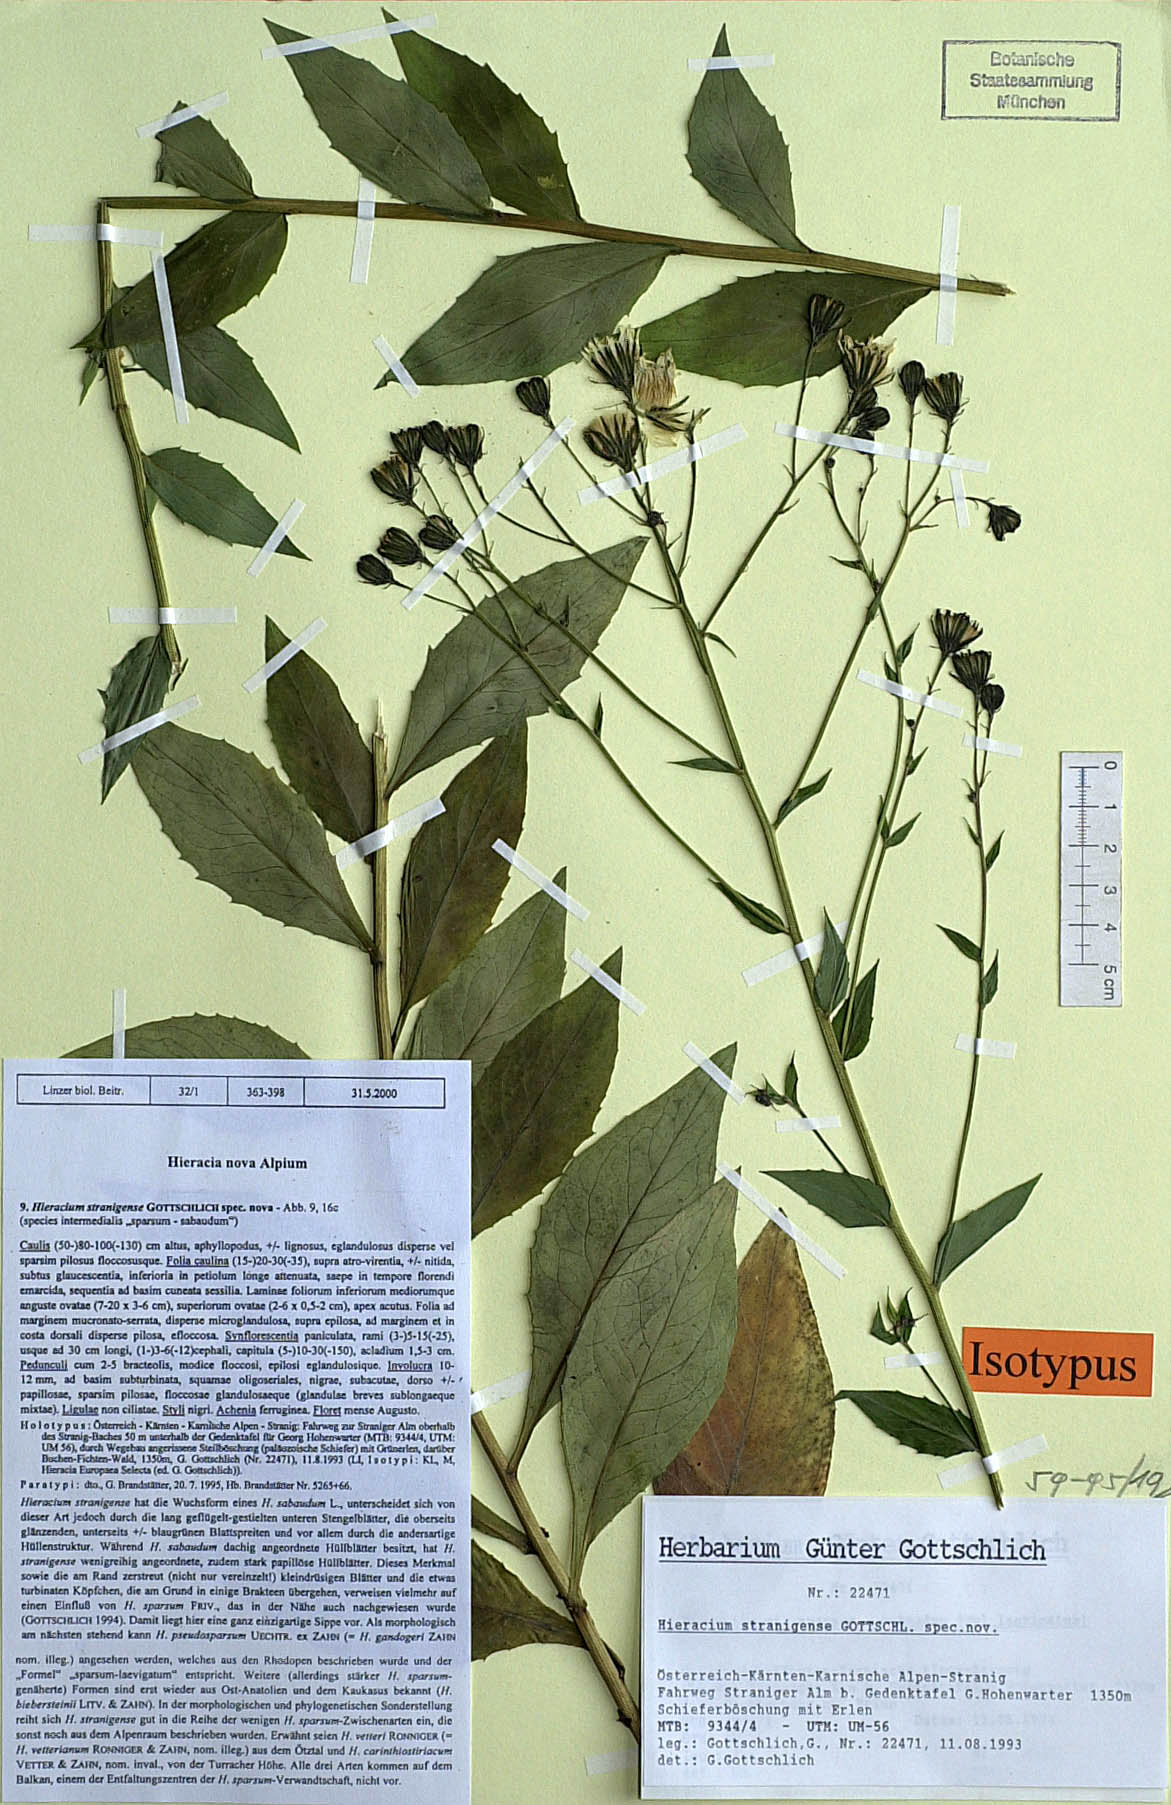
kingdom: Plantae
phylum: Tracheophyta
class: Magnoliopsida
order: Asterales
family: Asteraceae
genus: Hieracium
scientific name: Hieracium stranigense
